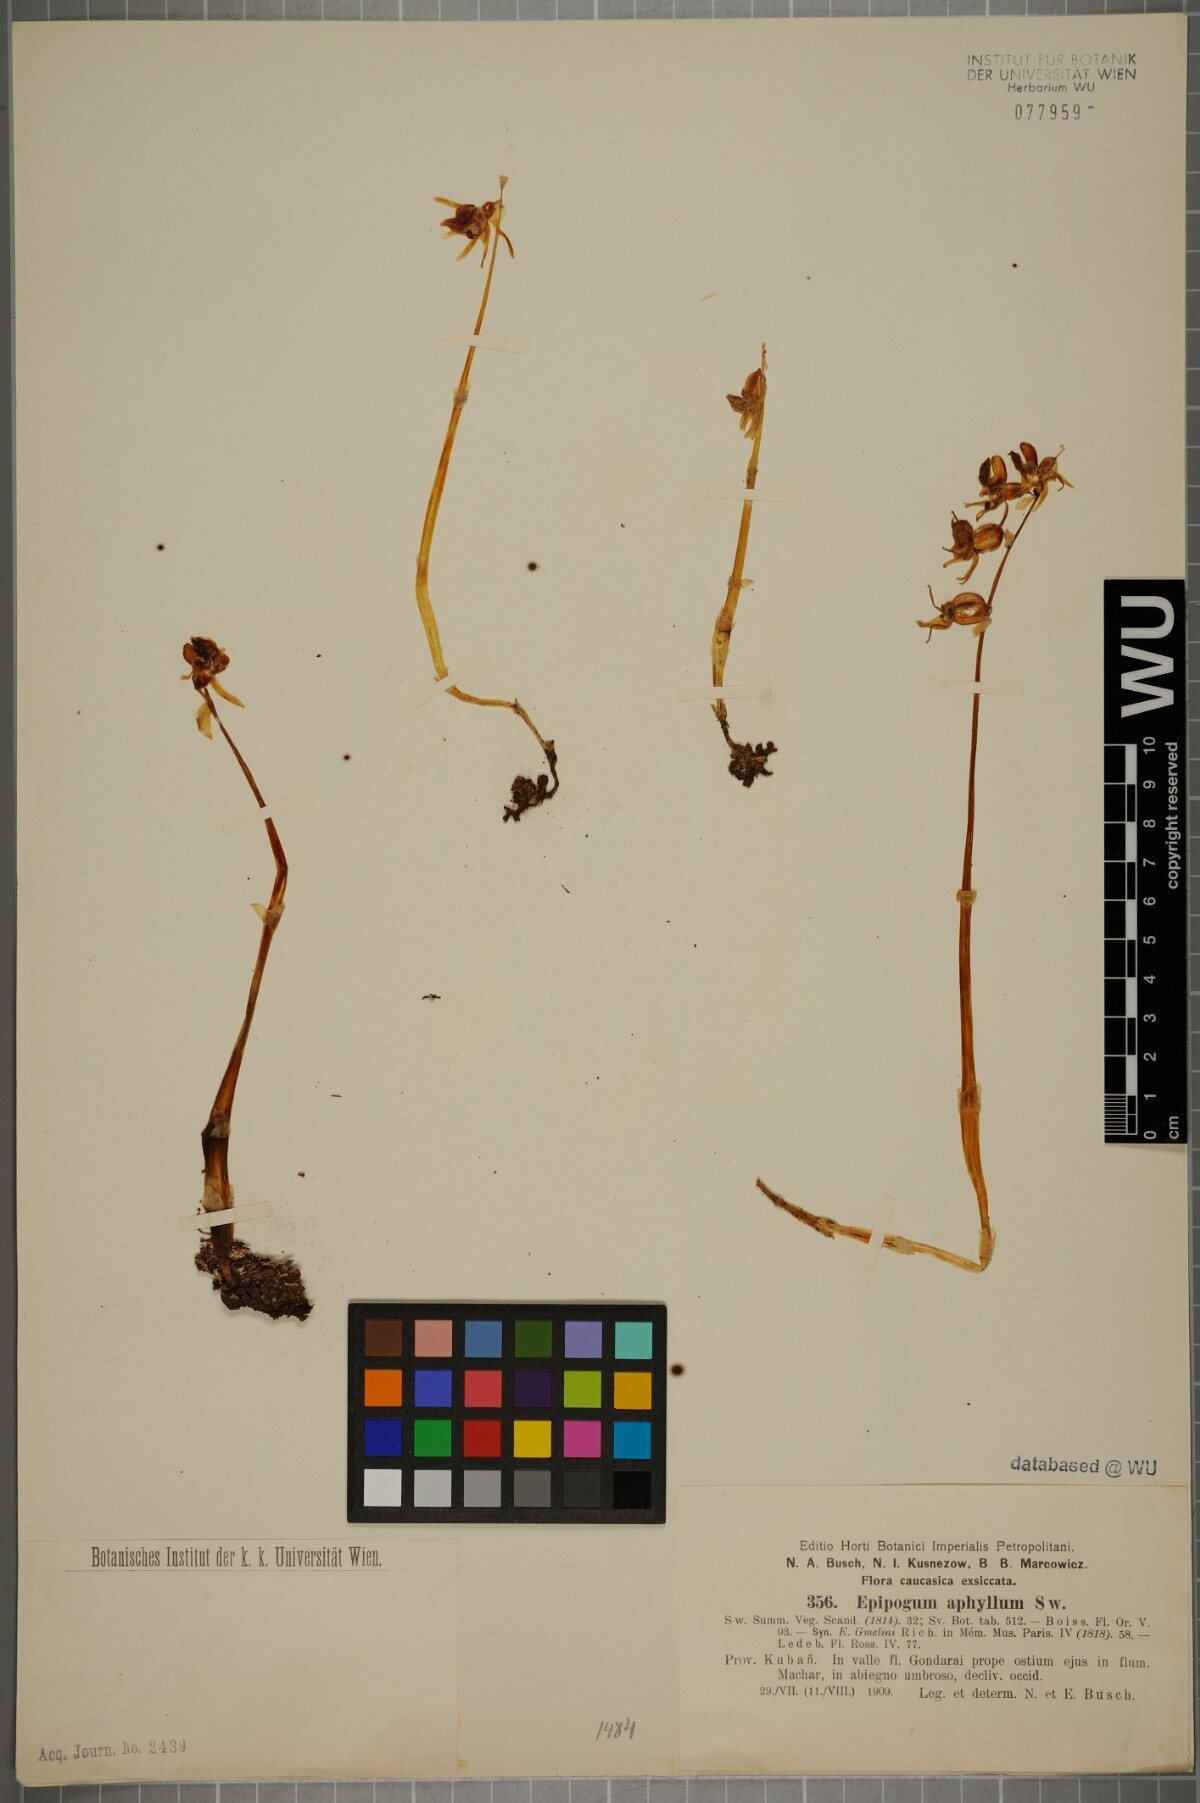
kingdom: Plantae
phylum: Tracheophyta
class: Liliopsida
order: Asparagales
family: Orchidaceae
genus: Epipogium
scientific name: Epipogium aphyllum
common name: Ghost orchid
